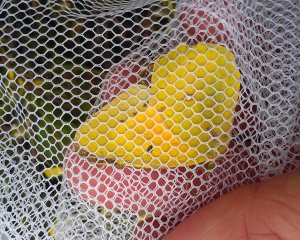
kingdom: Animalia
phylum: Arthropoda
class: Insecta
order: Lepidoptera
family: Pieridae
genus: Colias
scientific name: Colias eurytheme
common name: Orange Sulphur
